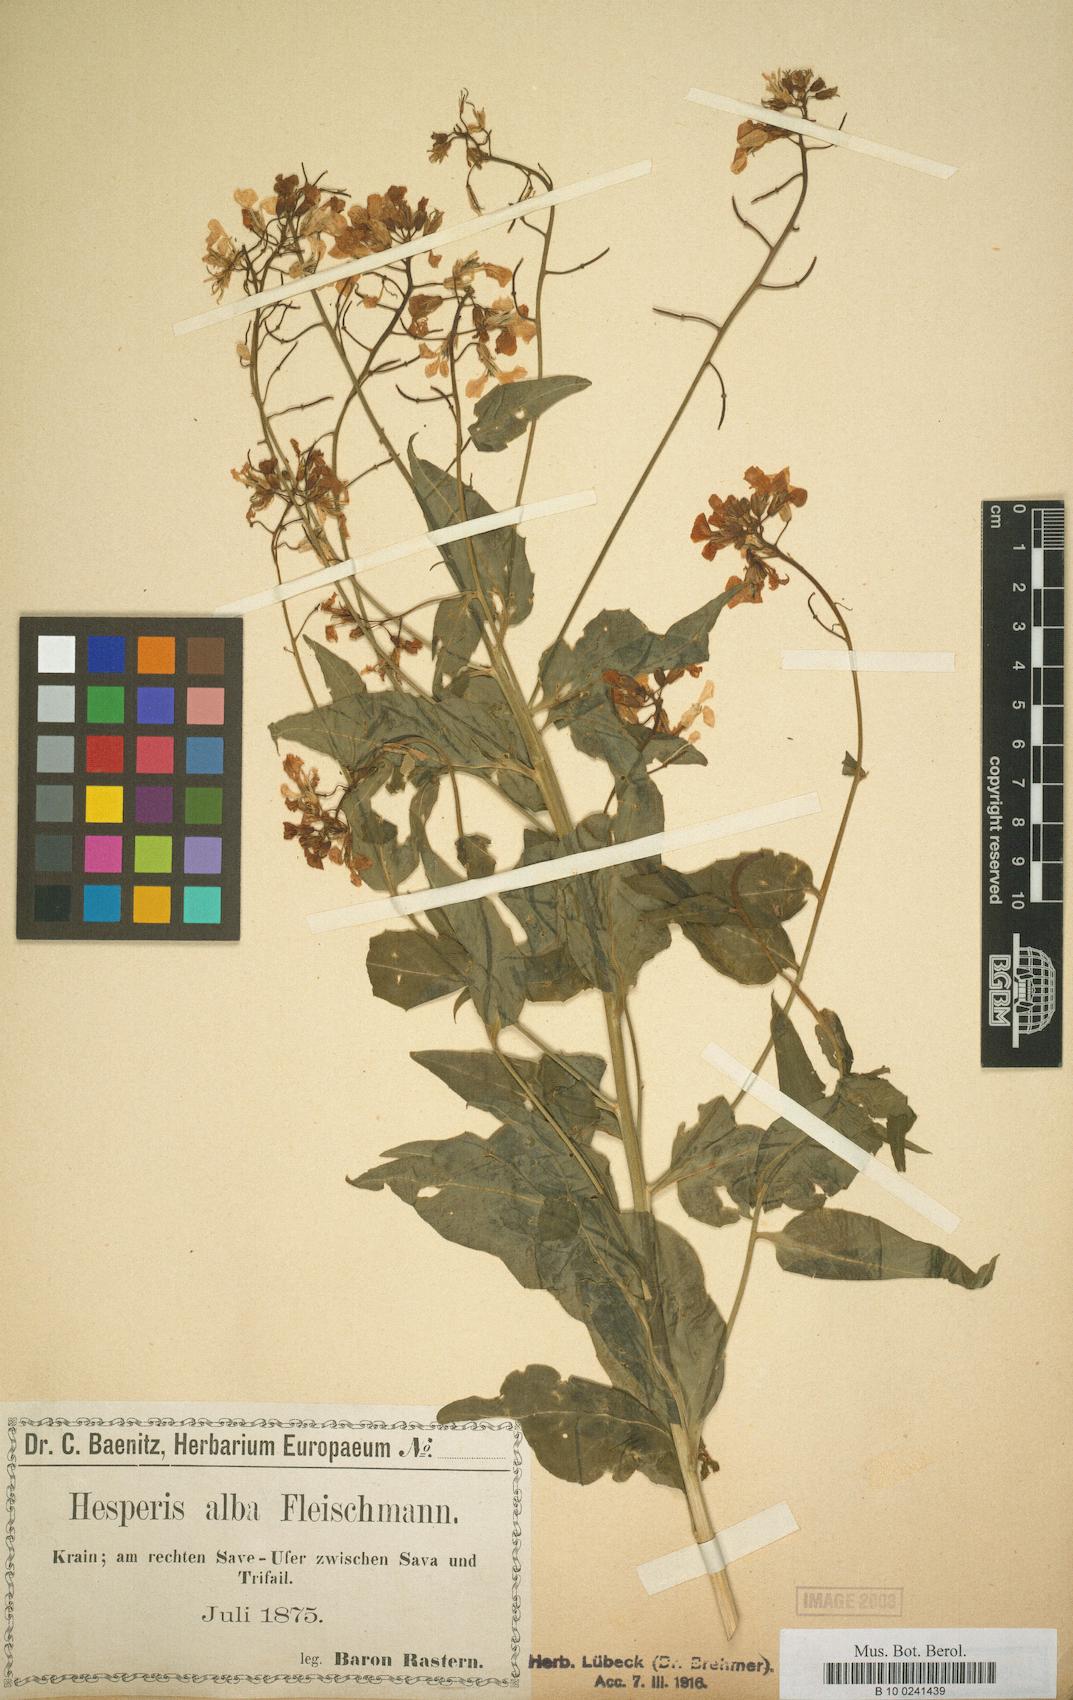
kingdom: Plantae
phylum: Tracheophyta
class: Magnoliopsida
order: Brassicales
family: Brassicaceae
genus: Hesperis
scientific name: Hesperis matronalis
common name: Dame's-violet
